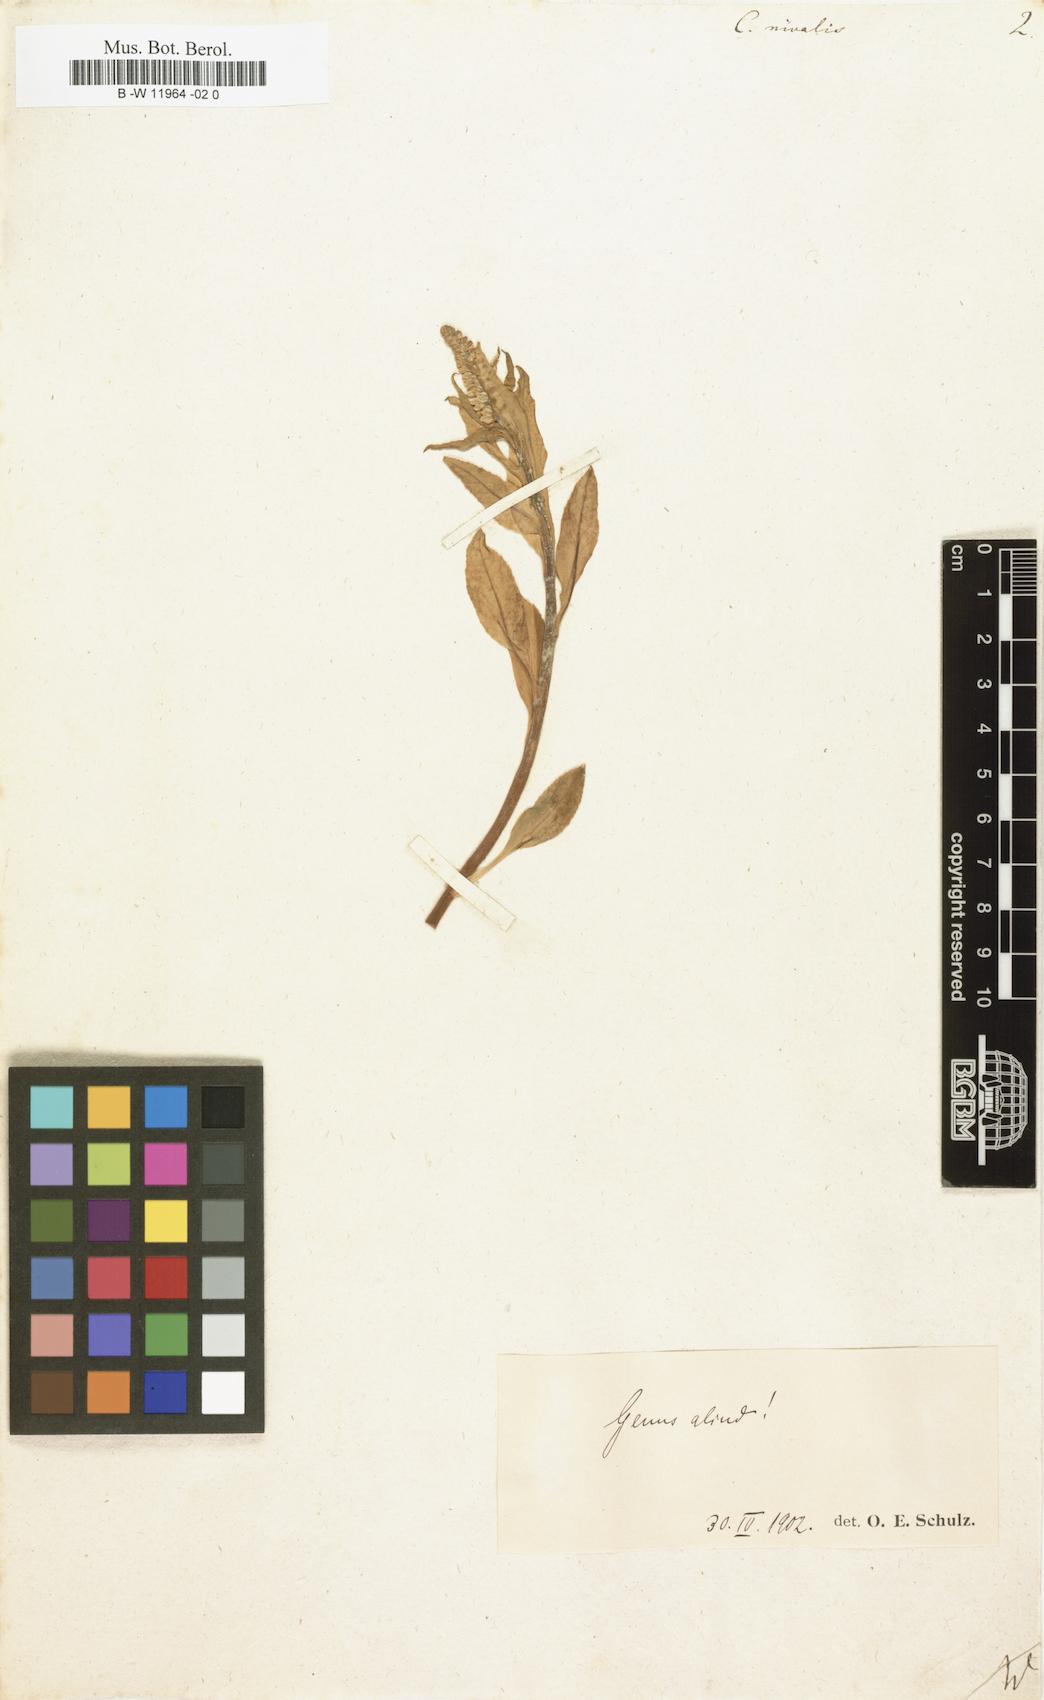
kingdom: Plantae
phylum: Tracheophyta
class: Magnoliopsida
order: Brassicales
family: Brassicaceae
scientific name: Brassicaceae
